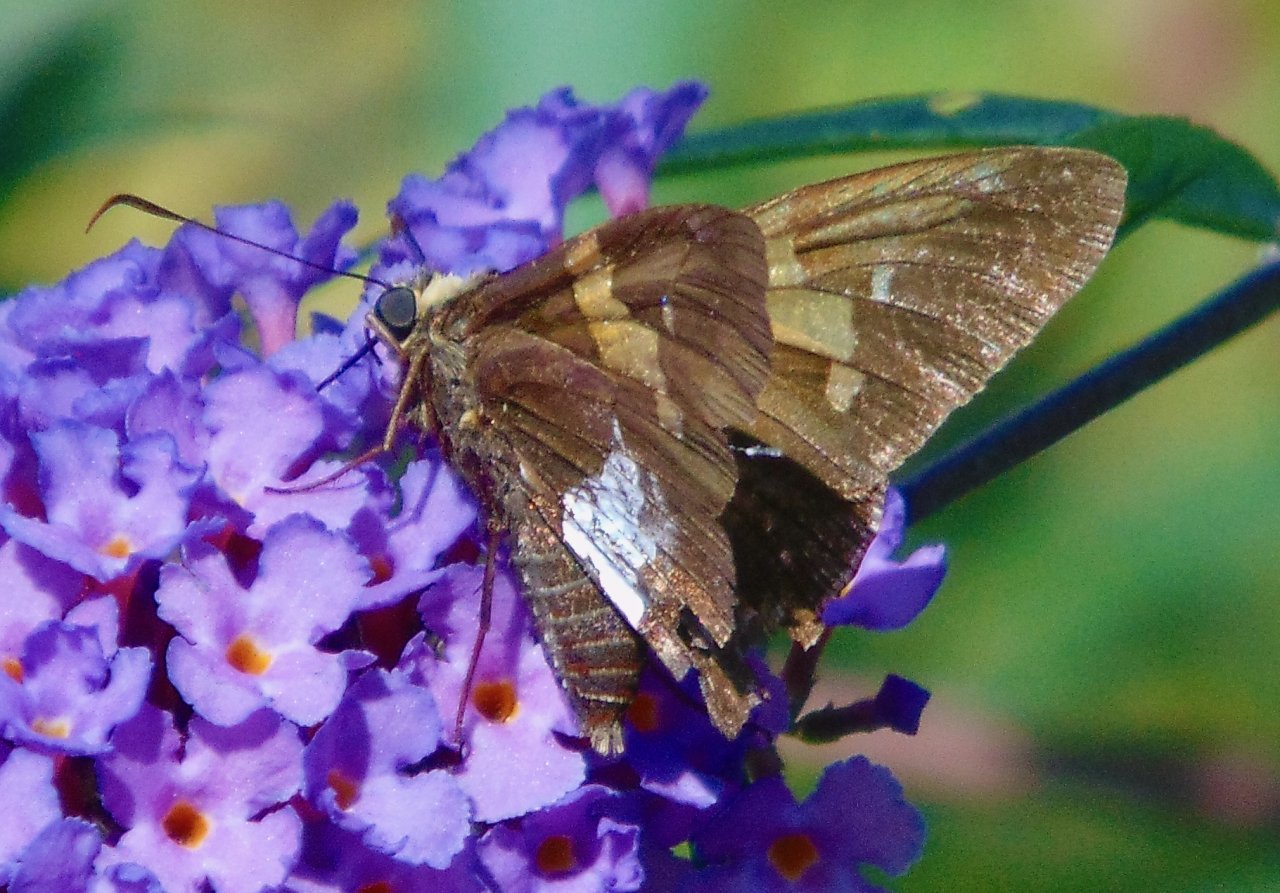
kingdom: Animalia
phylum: Arthropoda
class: Insecta
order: Lepidoptera
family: Hesperiidae
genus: Epargyreus
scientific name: Epargyreus clarus
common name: Silver-spotted Skipper
